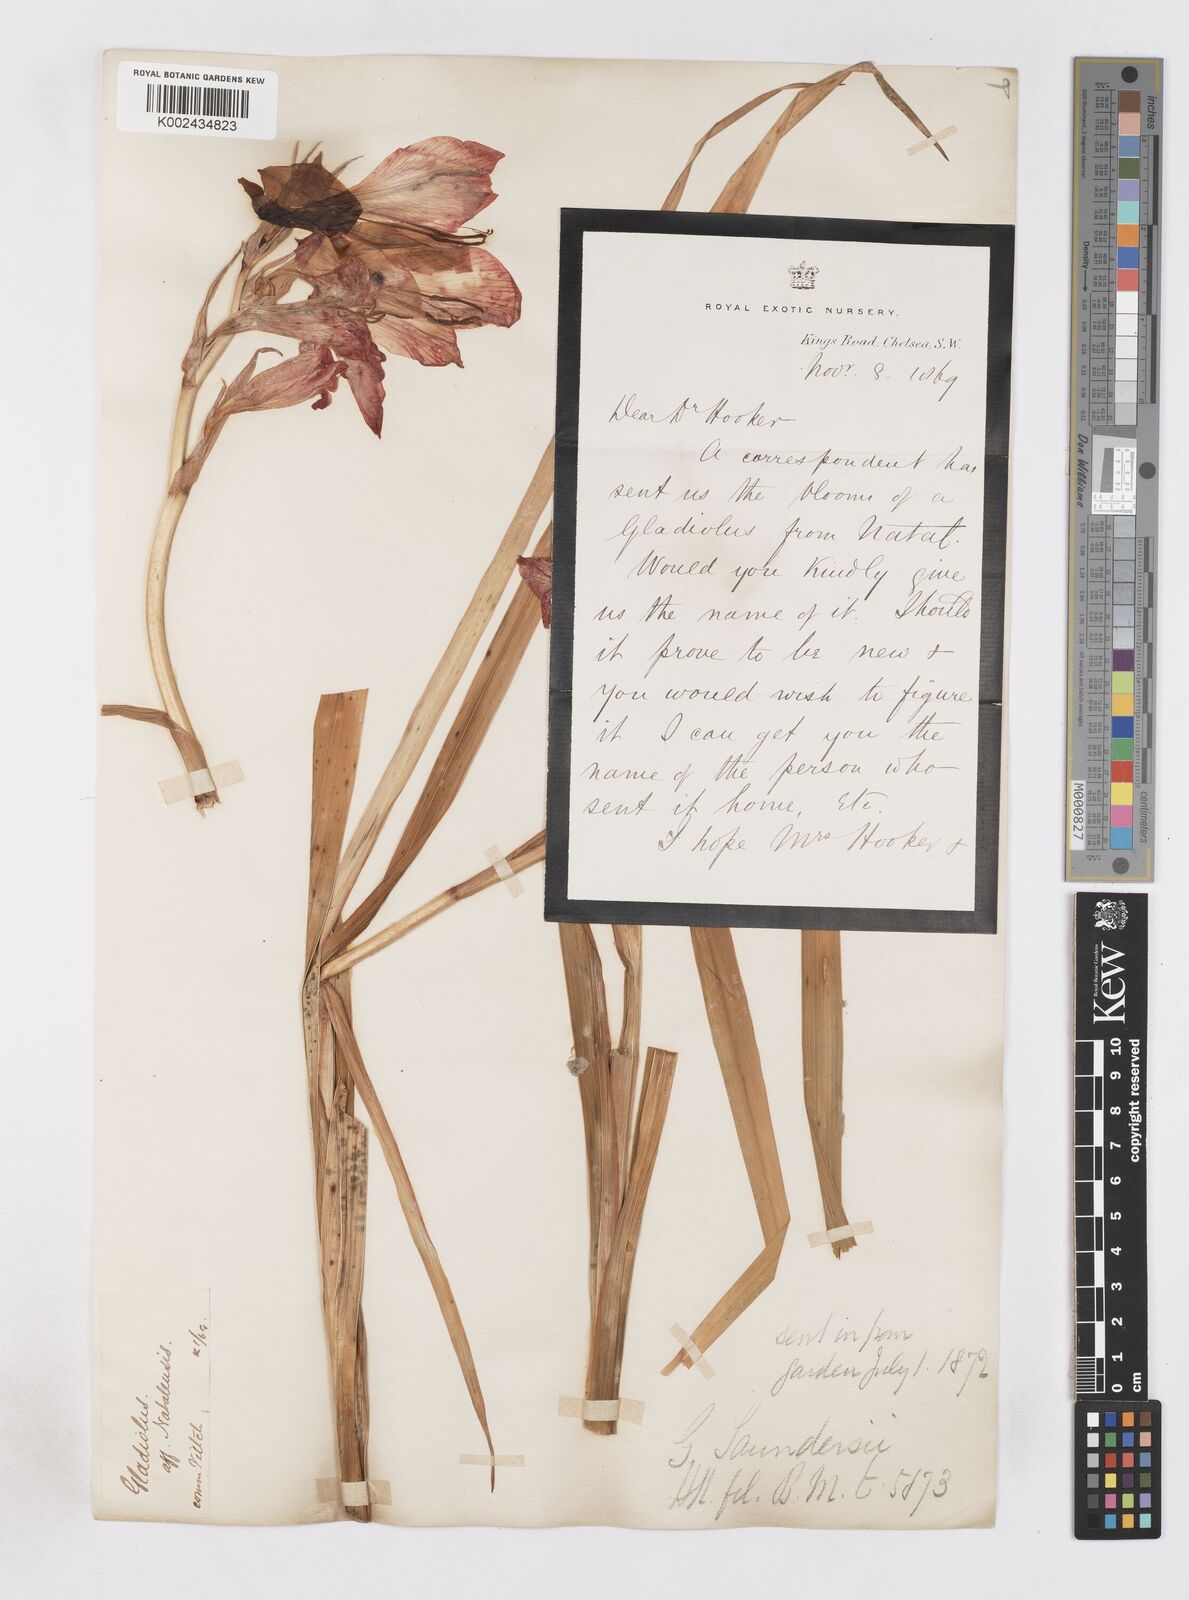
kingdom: Plantae
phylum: Tracheophyta
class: Liliopsida
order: Asparagales
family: Iridaceae
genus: Gladiolus
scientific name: Gladiolus cruentus
